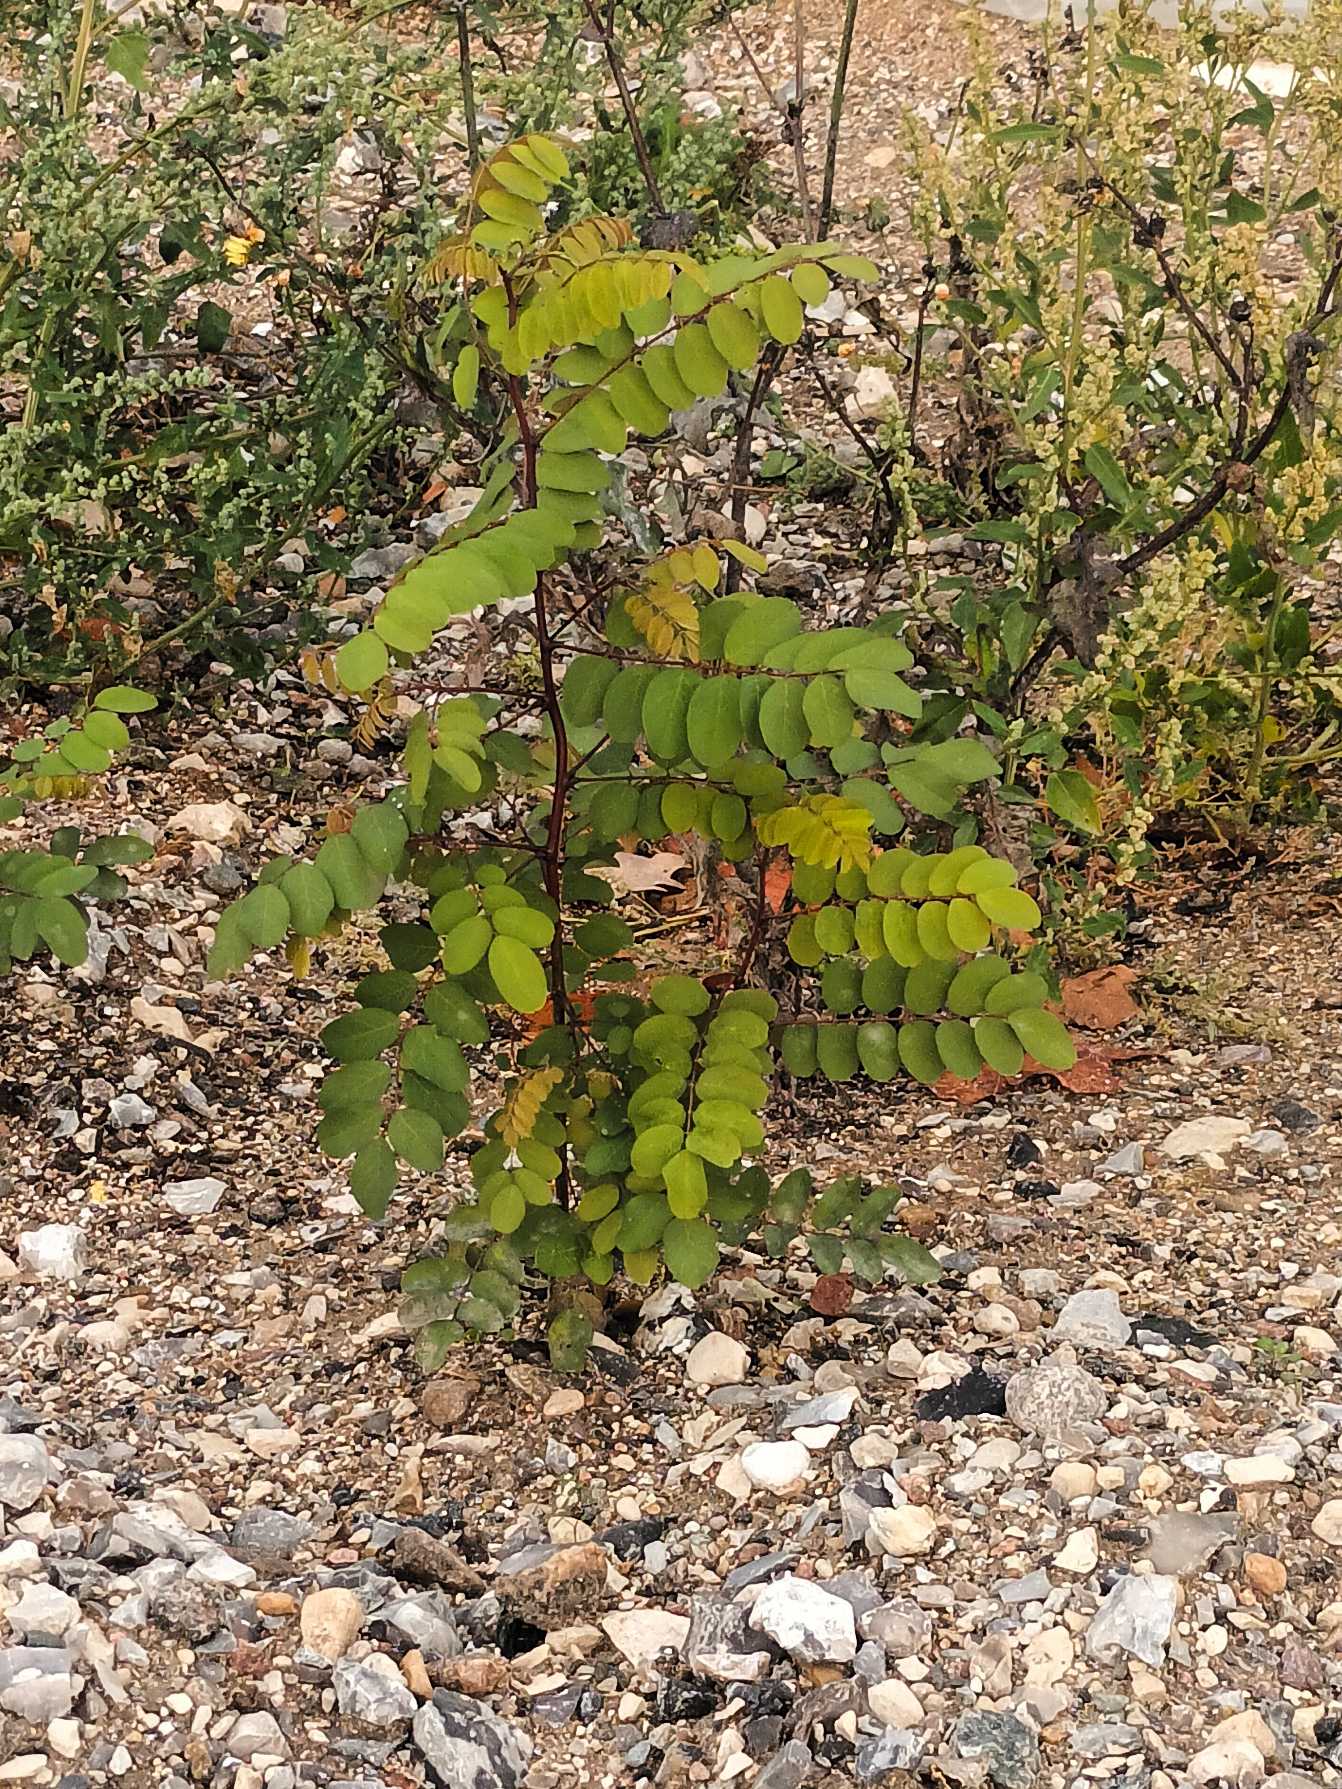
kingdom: Plantae
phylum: Tracheophyta
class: Magnoliopsida
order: Fabales
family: Fabaceae
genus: Robinia
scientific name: Robinia pseudoacacia
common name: Robinie
